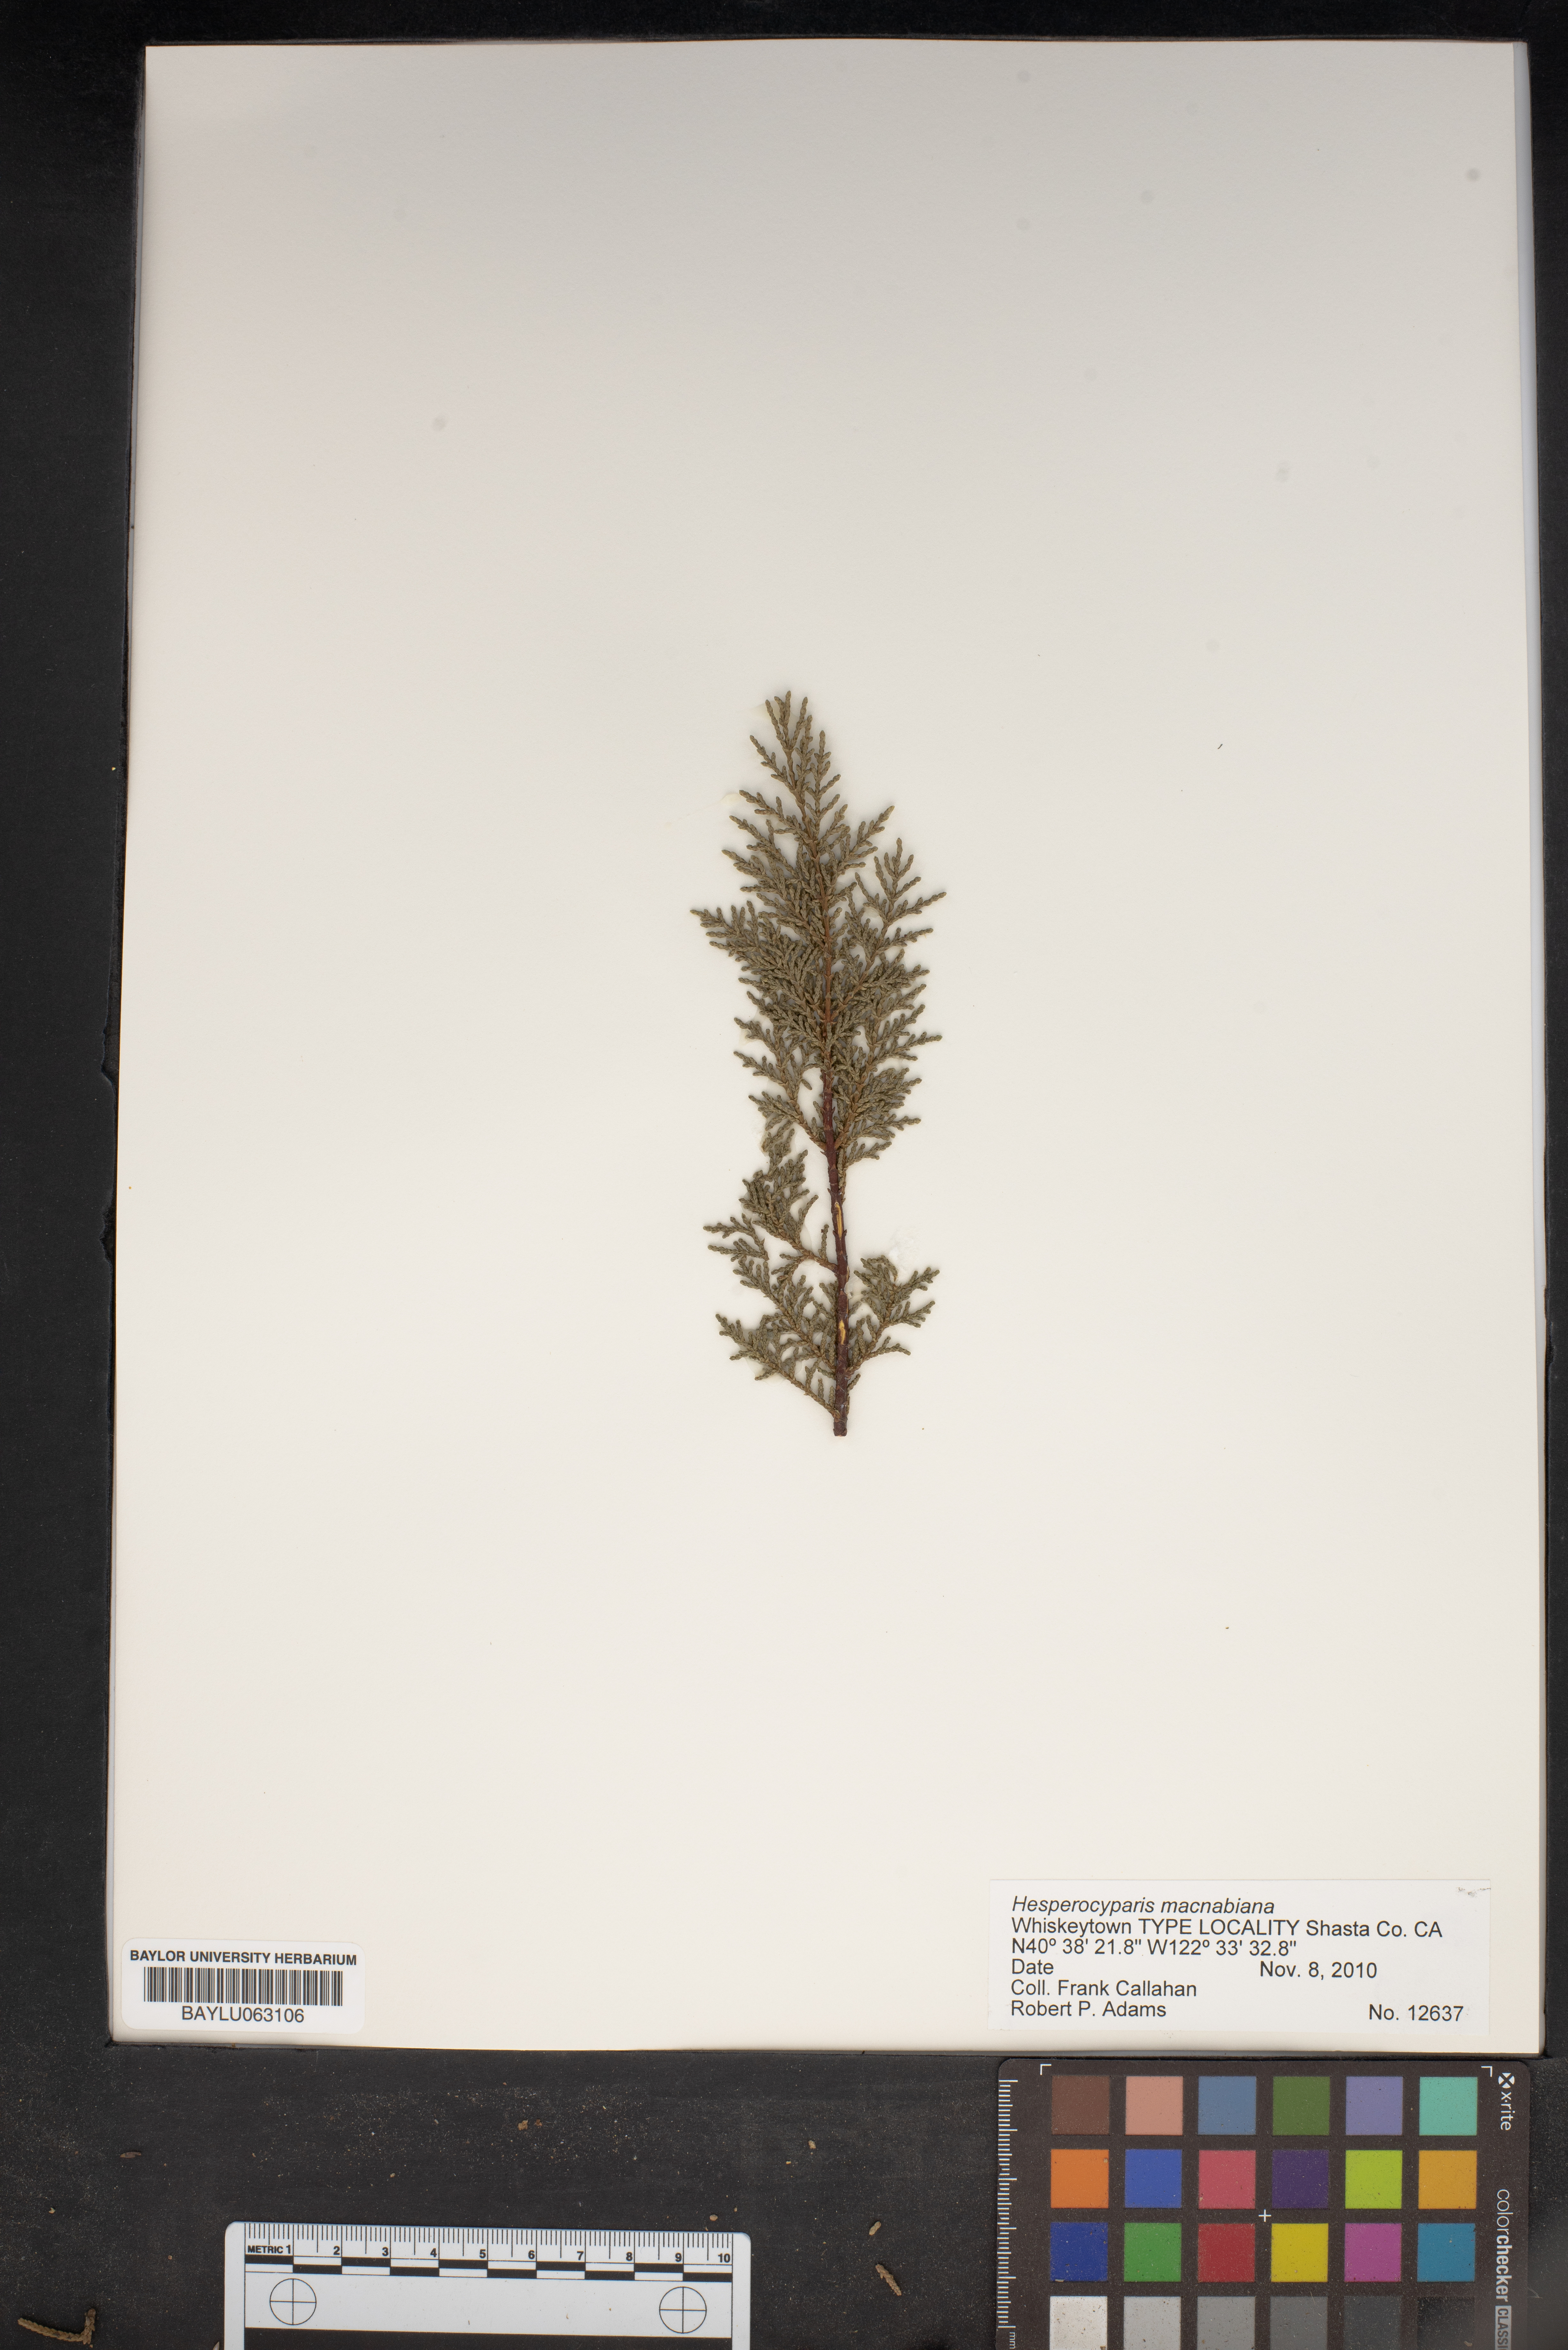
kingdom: Plantae
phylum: Tracheophyta
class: Pinopsida
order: Pinales
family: Cupressaceae
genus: Cupressus
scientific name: Cupressus macnabiana bis
